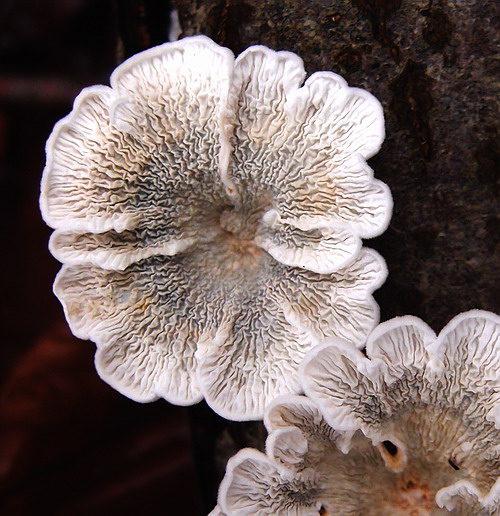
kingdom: Fungi
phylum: Basidiomycota
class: Agaricomycetes
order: Amylocorticiales
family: Amylocorticiaceae
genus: Plicaturopsis
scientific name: Plicaturopsis crispa
